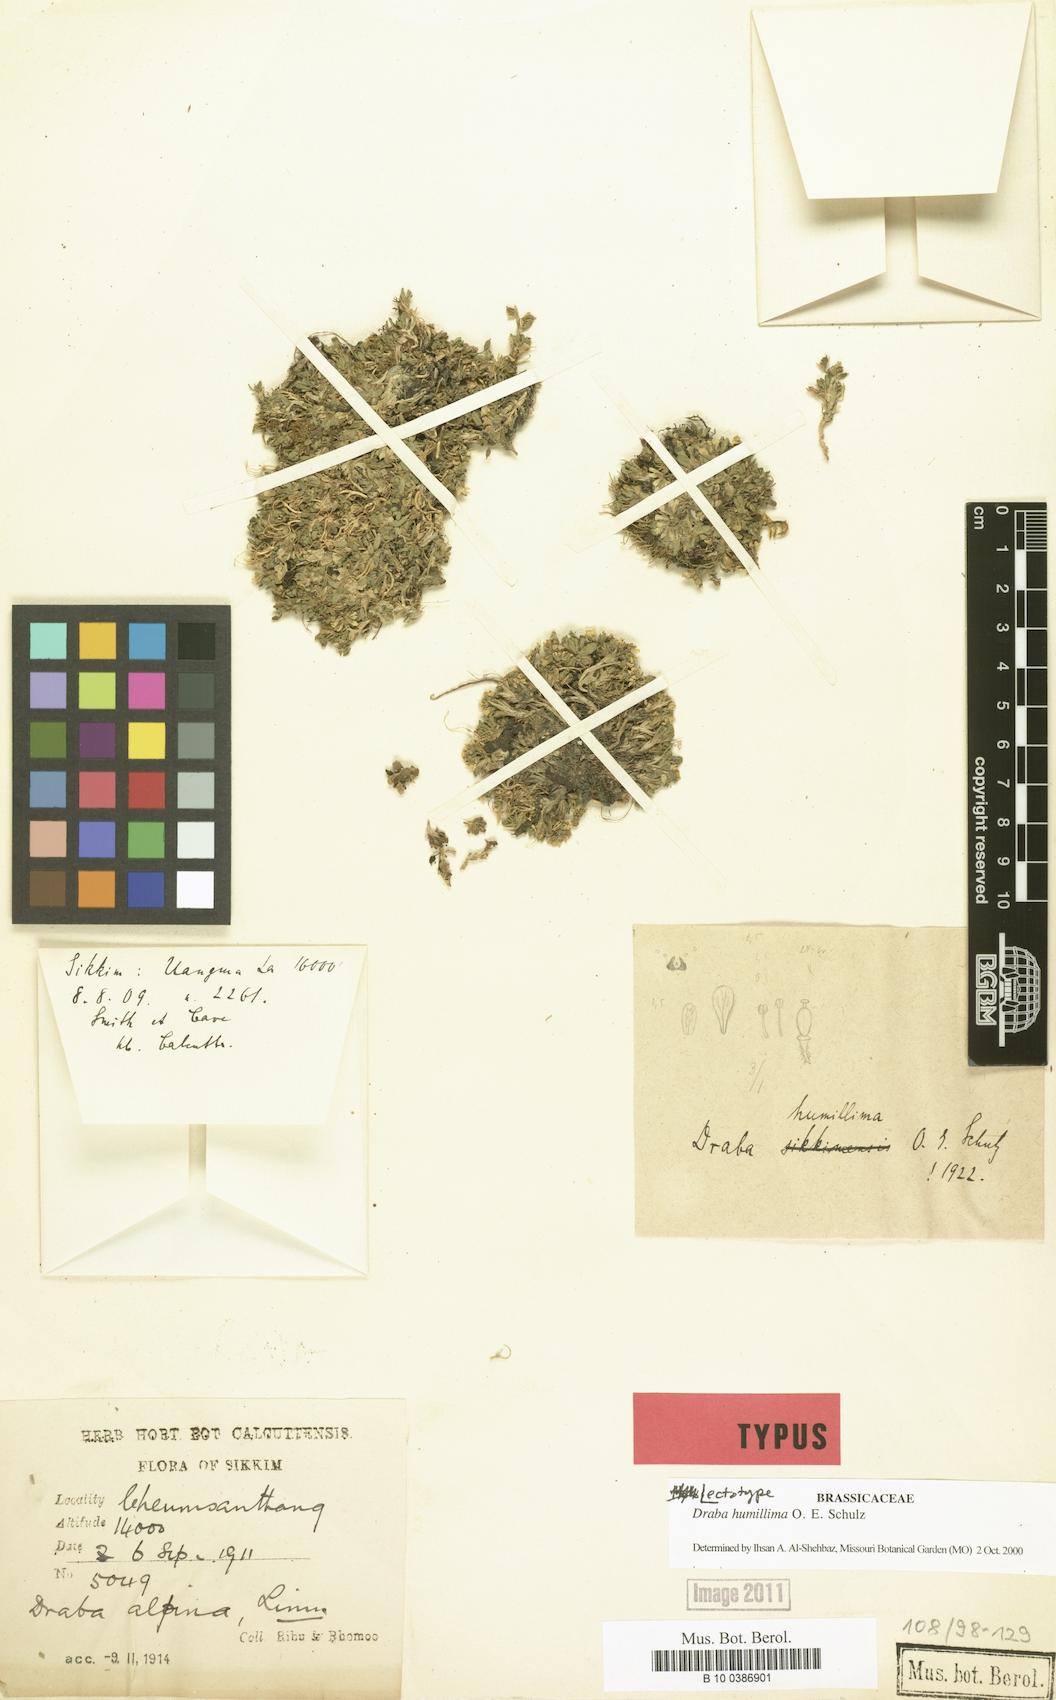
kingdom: Plantae
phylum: Tracheophyta
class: Magnoliopsida
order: Brassicales
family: Brassicaceae
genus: Draba
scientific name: Draba humillima
